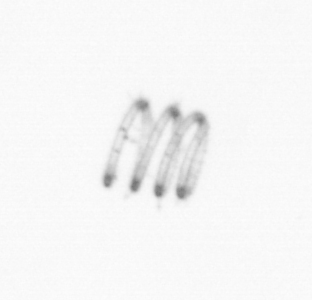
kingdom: Chromista
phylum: Ochrophyta
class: Bacillariophyceae
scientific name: Bacillariophyceae
